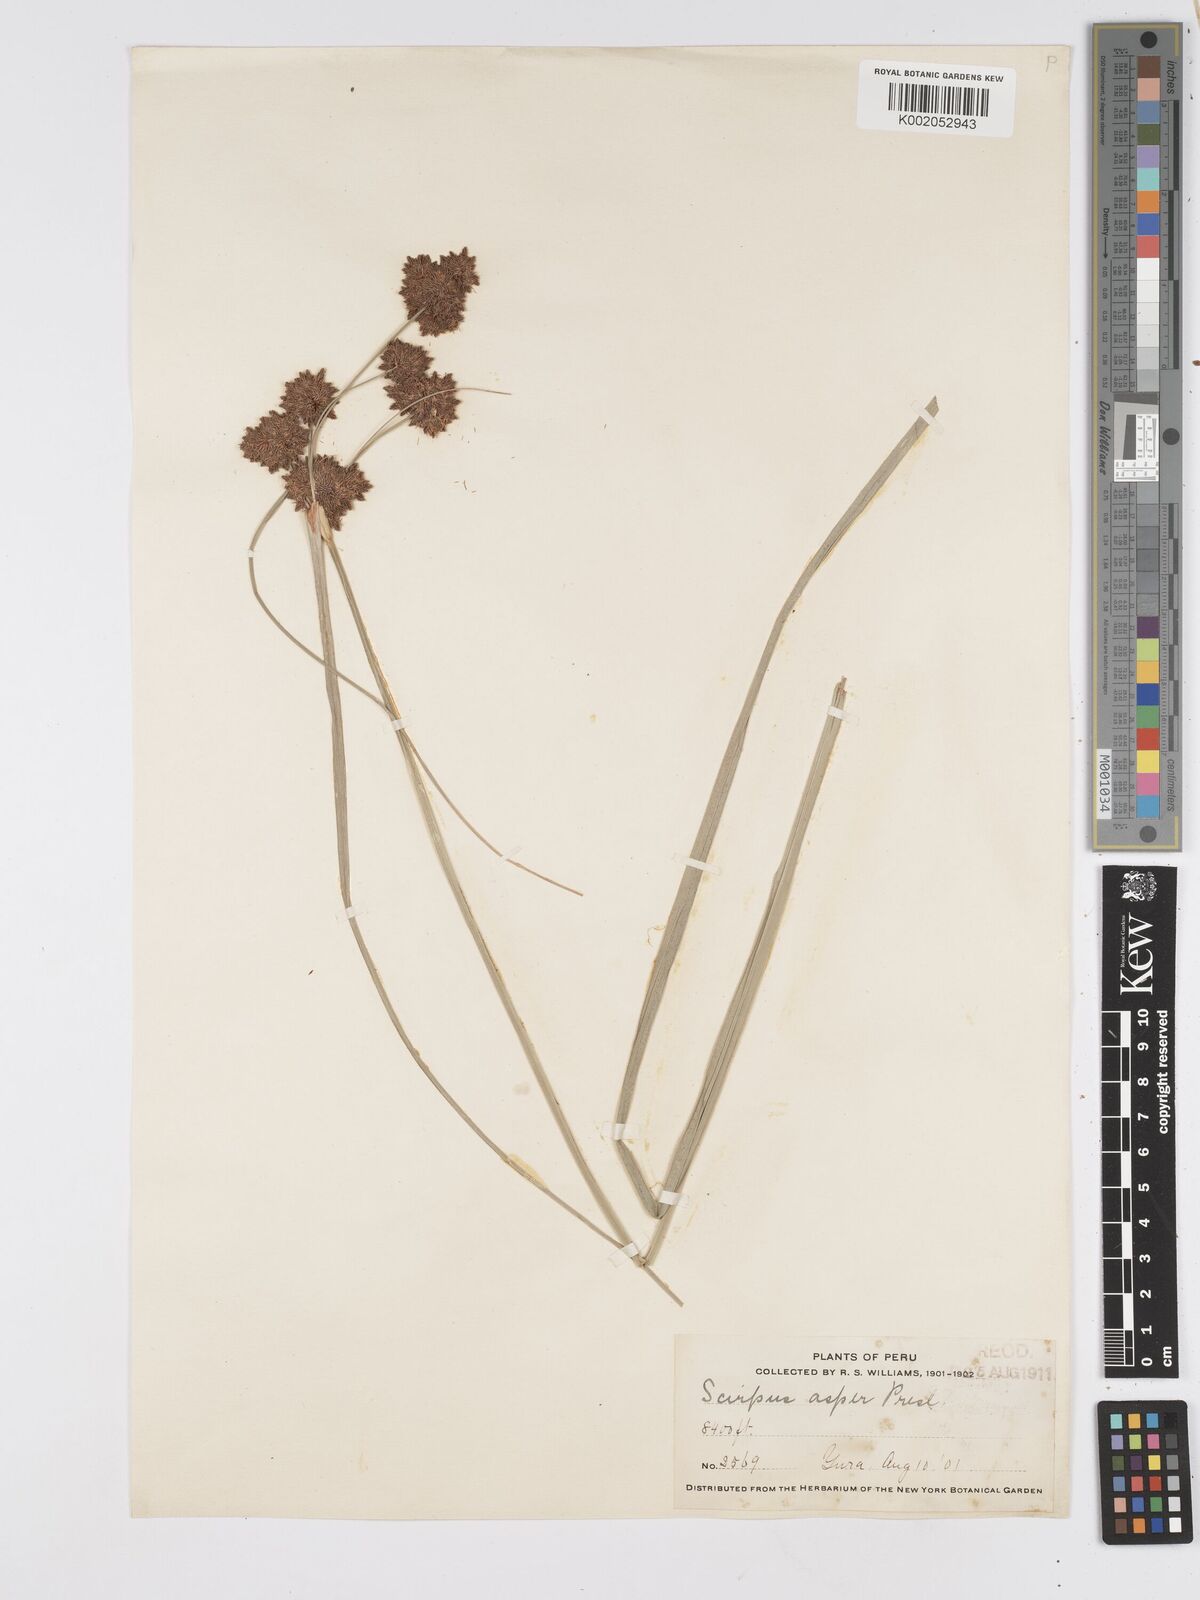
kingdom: Plantae
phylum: Tracheophyta
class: Liliopsida
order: Poales
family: Cyperaceae
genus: Rhodoscirpus
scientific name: Rhodoscirpus asper
